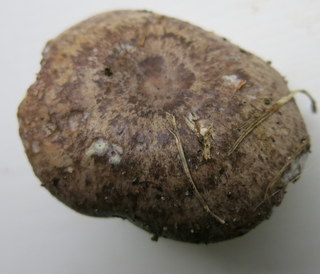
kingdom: Fungi
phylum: Basidiomycota
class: Agaricomycetes
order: Russulales
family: Russulaceae
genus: Lactarius
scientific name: Lactarius circellatus
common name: avnbøg-mælkehat
